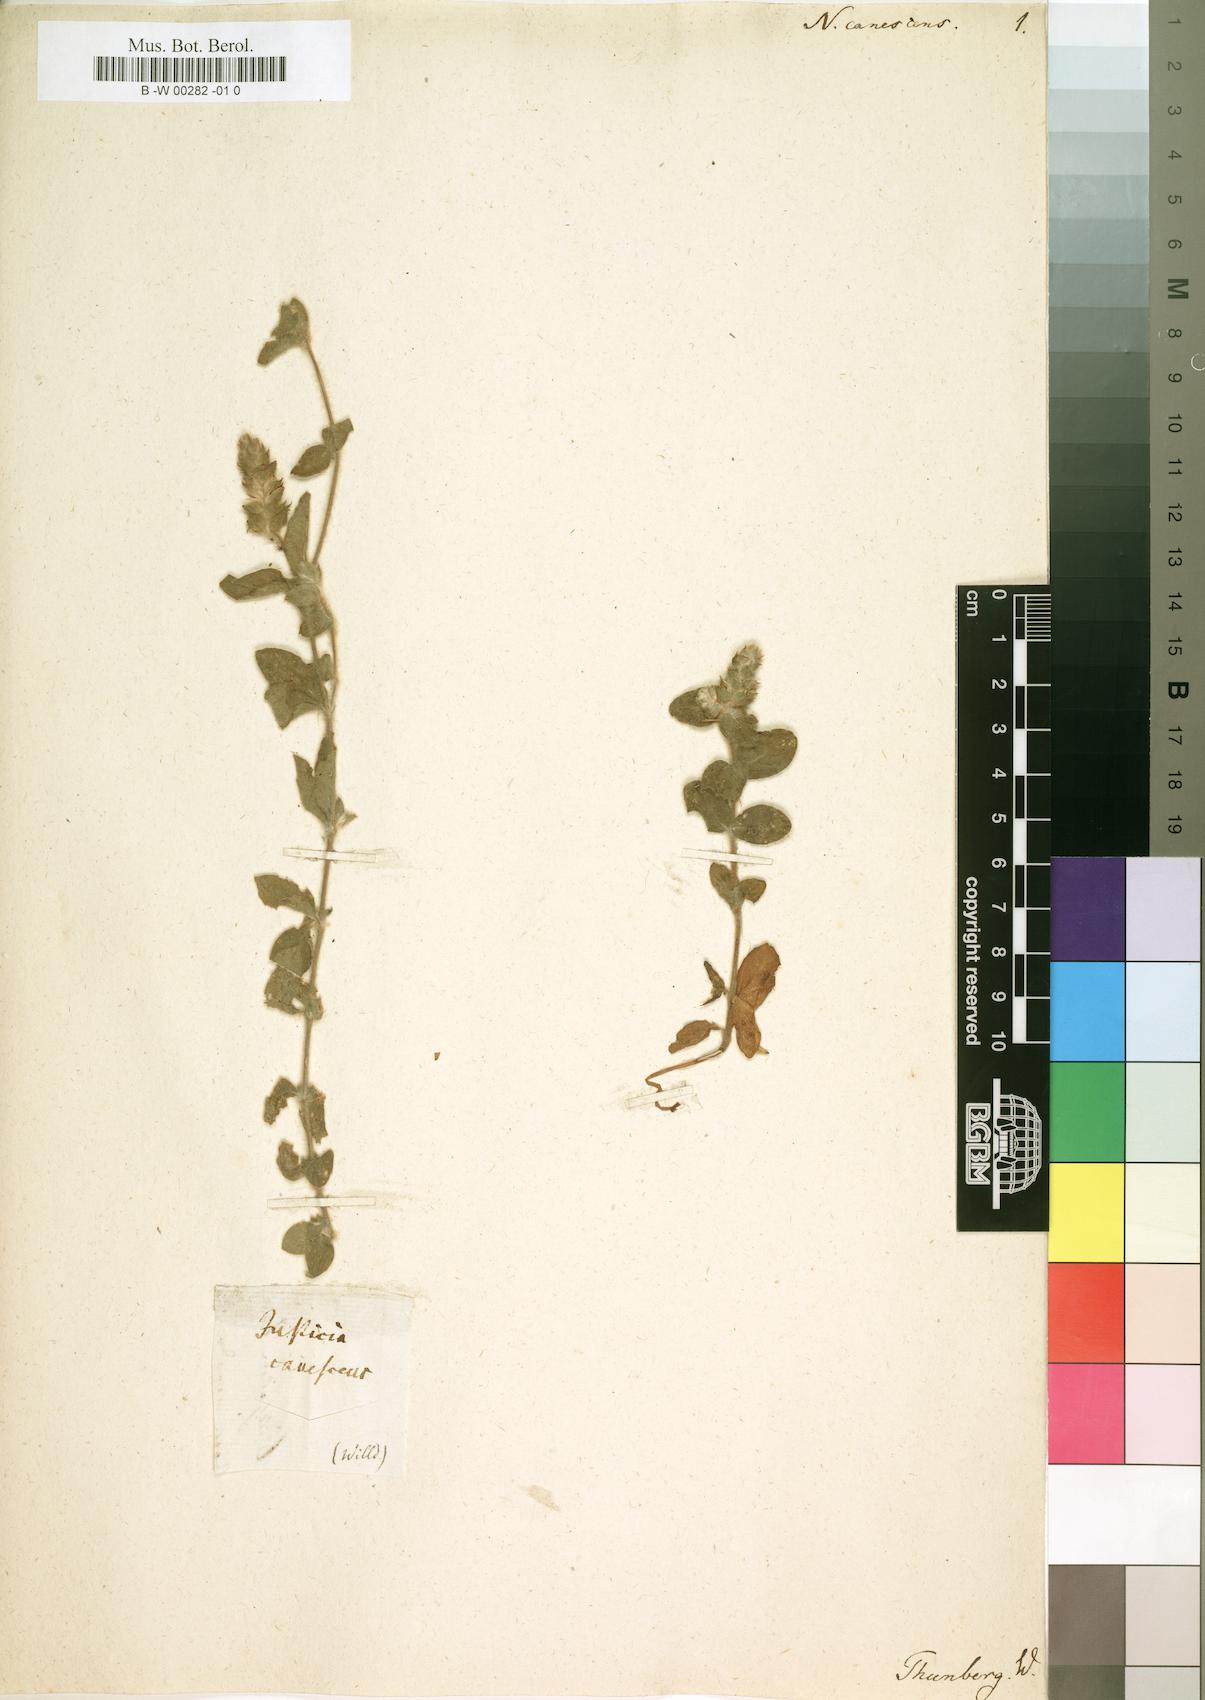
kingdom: Plantae
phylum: Tracheophyta
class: Magnoliopsida
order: Lamiales
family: Acanthaceae
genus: Nelsonia
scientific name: Nelsonia canescens
